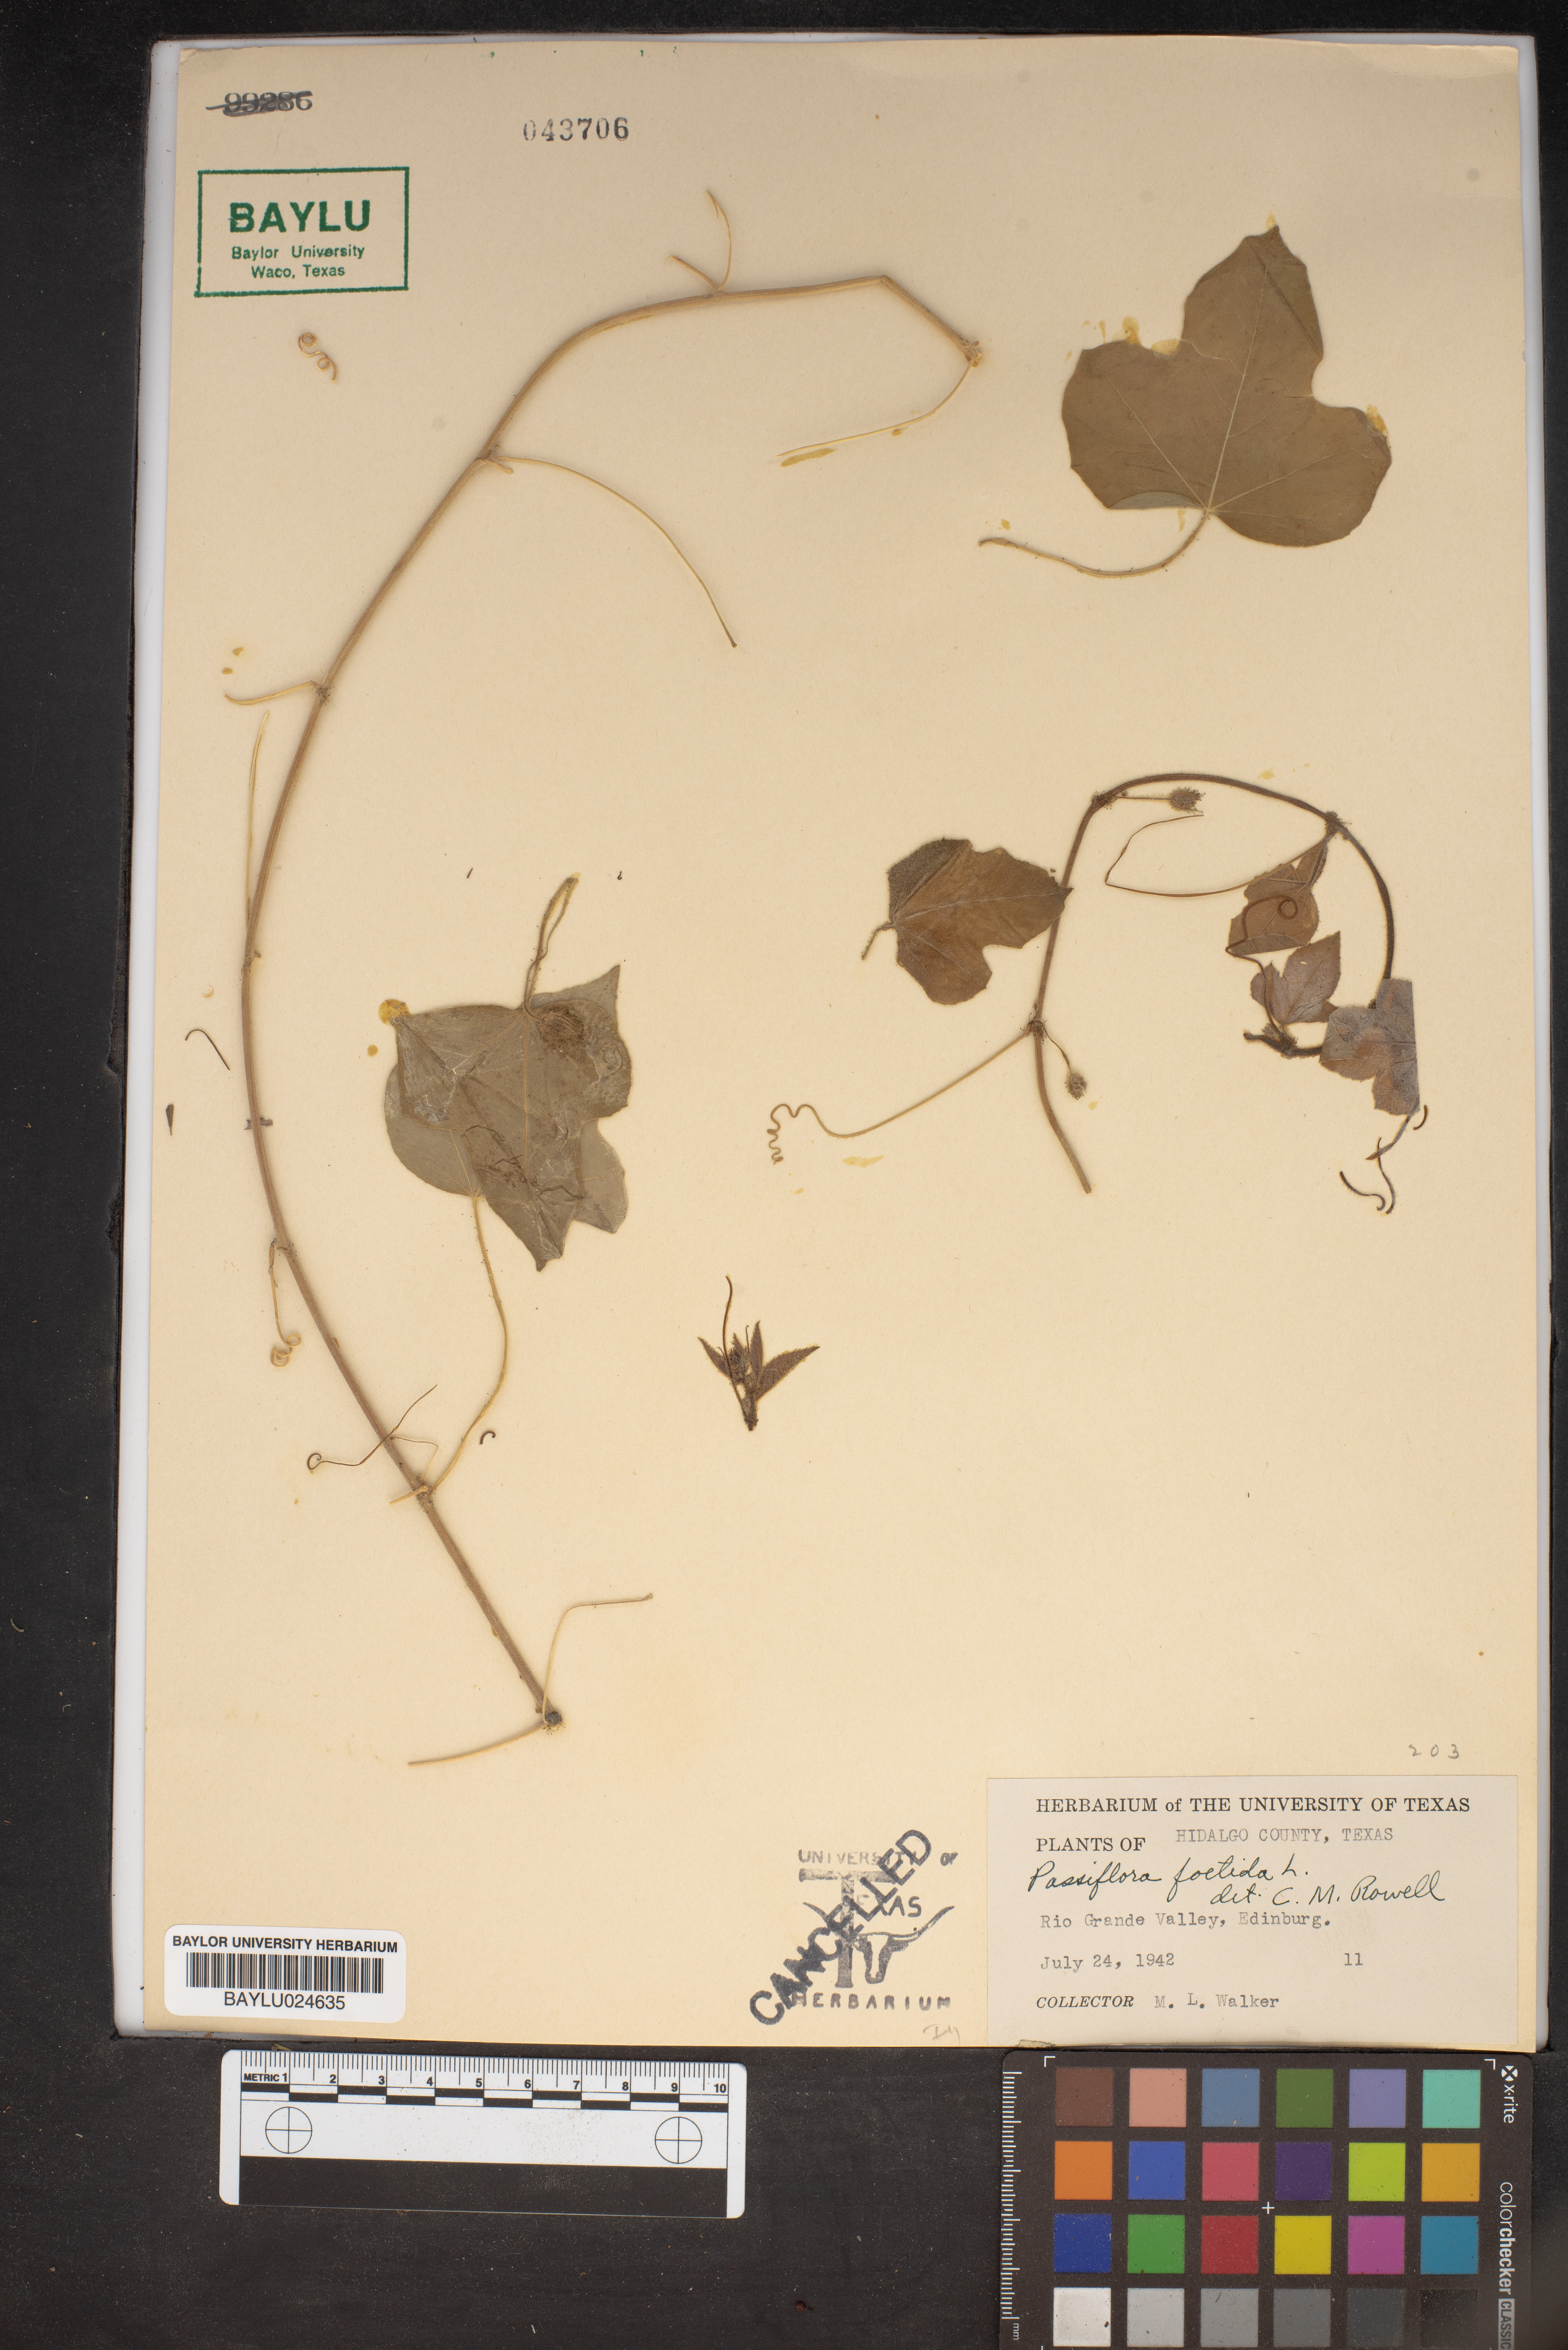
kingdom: Plantae
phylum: Tracheophyta
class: Magnoliopsida
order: Malpighiales
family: Passifloraceae
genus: Passiflora
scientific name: Passiflora foetida
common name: Fetid passionflower
